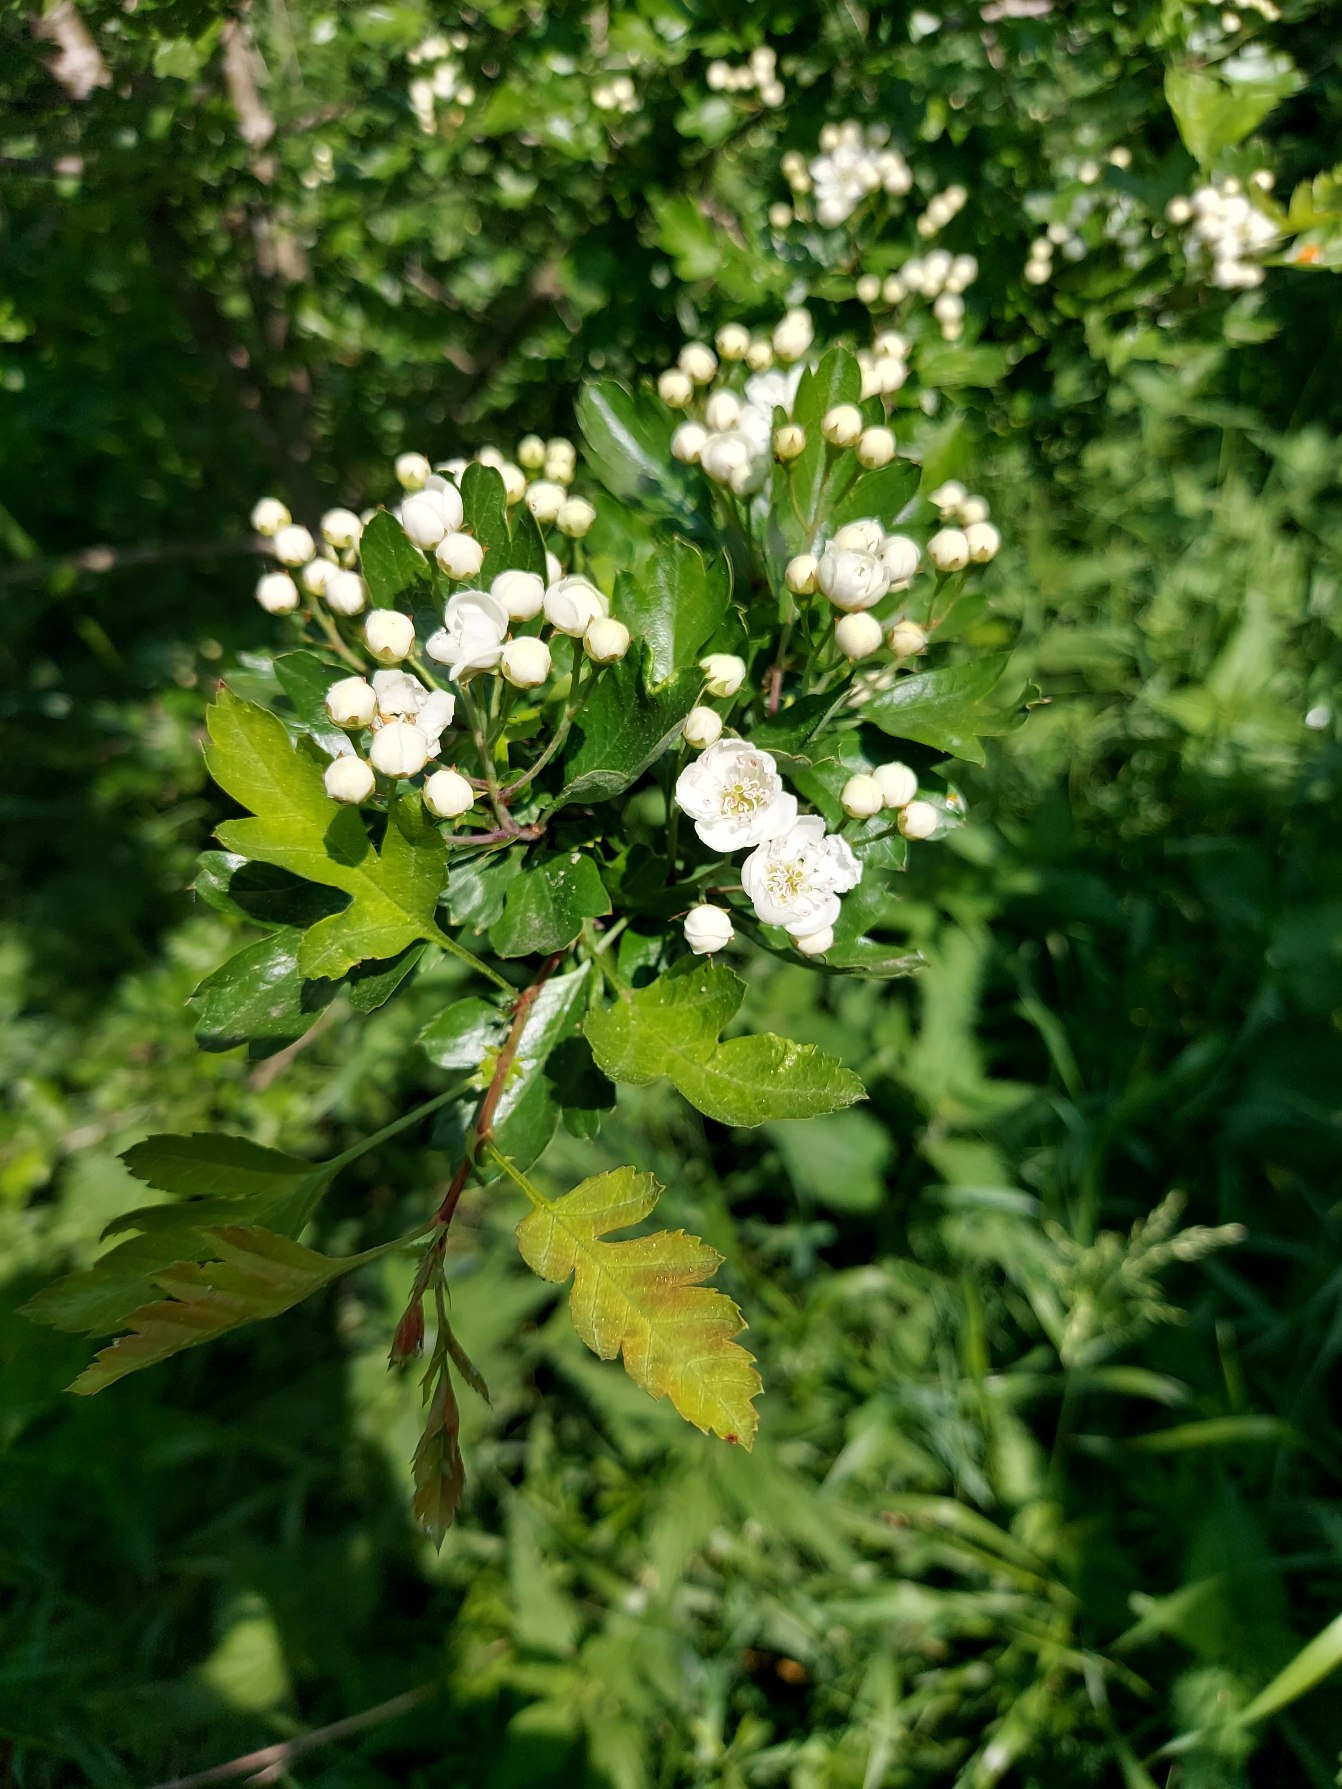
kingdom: Plantae
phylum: Tracheophyta
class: Magnoliopsida
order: Rosales
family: Rosaceae
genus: Crataegus
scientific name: Crataegus monogyna
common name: Engriflet hvidtjørn
